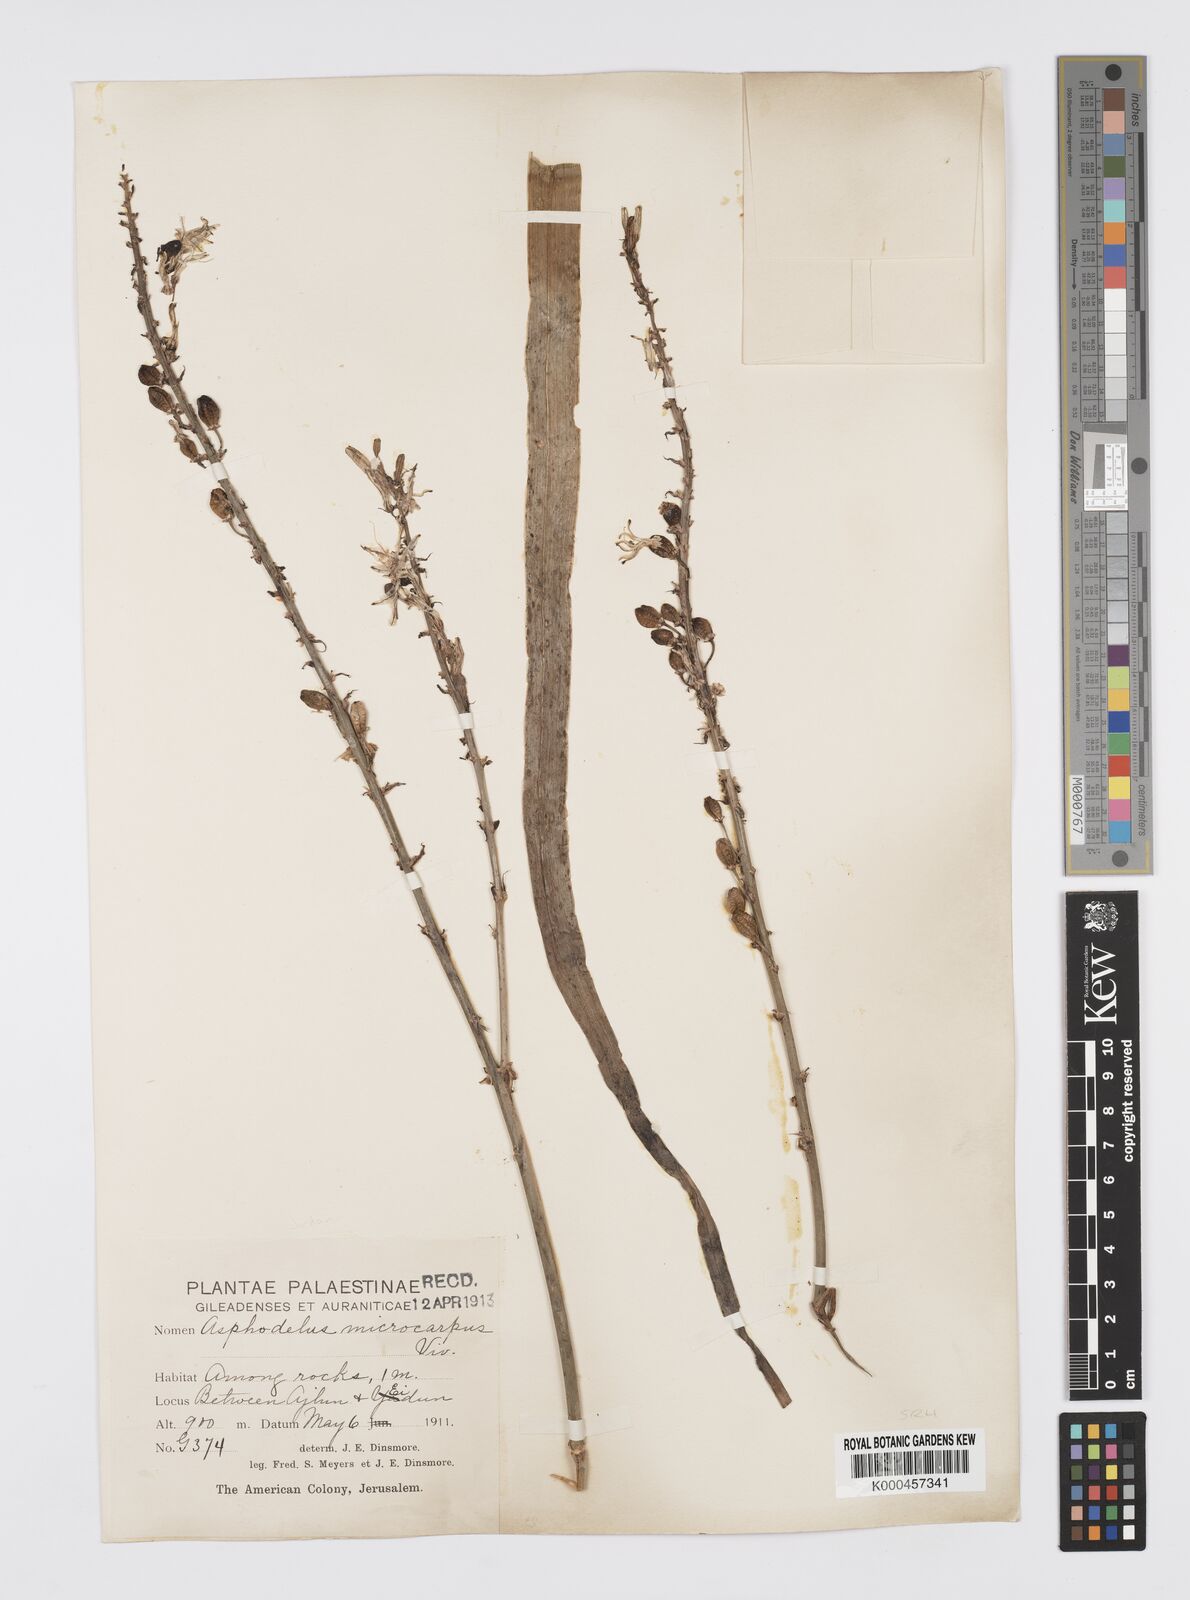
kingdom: Plantae
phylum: Tracheophyta
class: Liliopsida
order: Asparagales
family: Asphodelaceae
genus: Asphodelus
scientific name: Asphodelus aestivus
